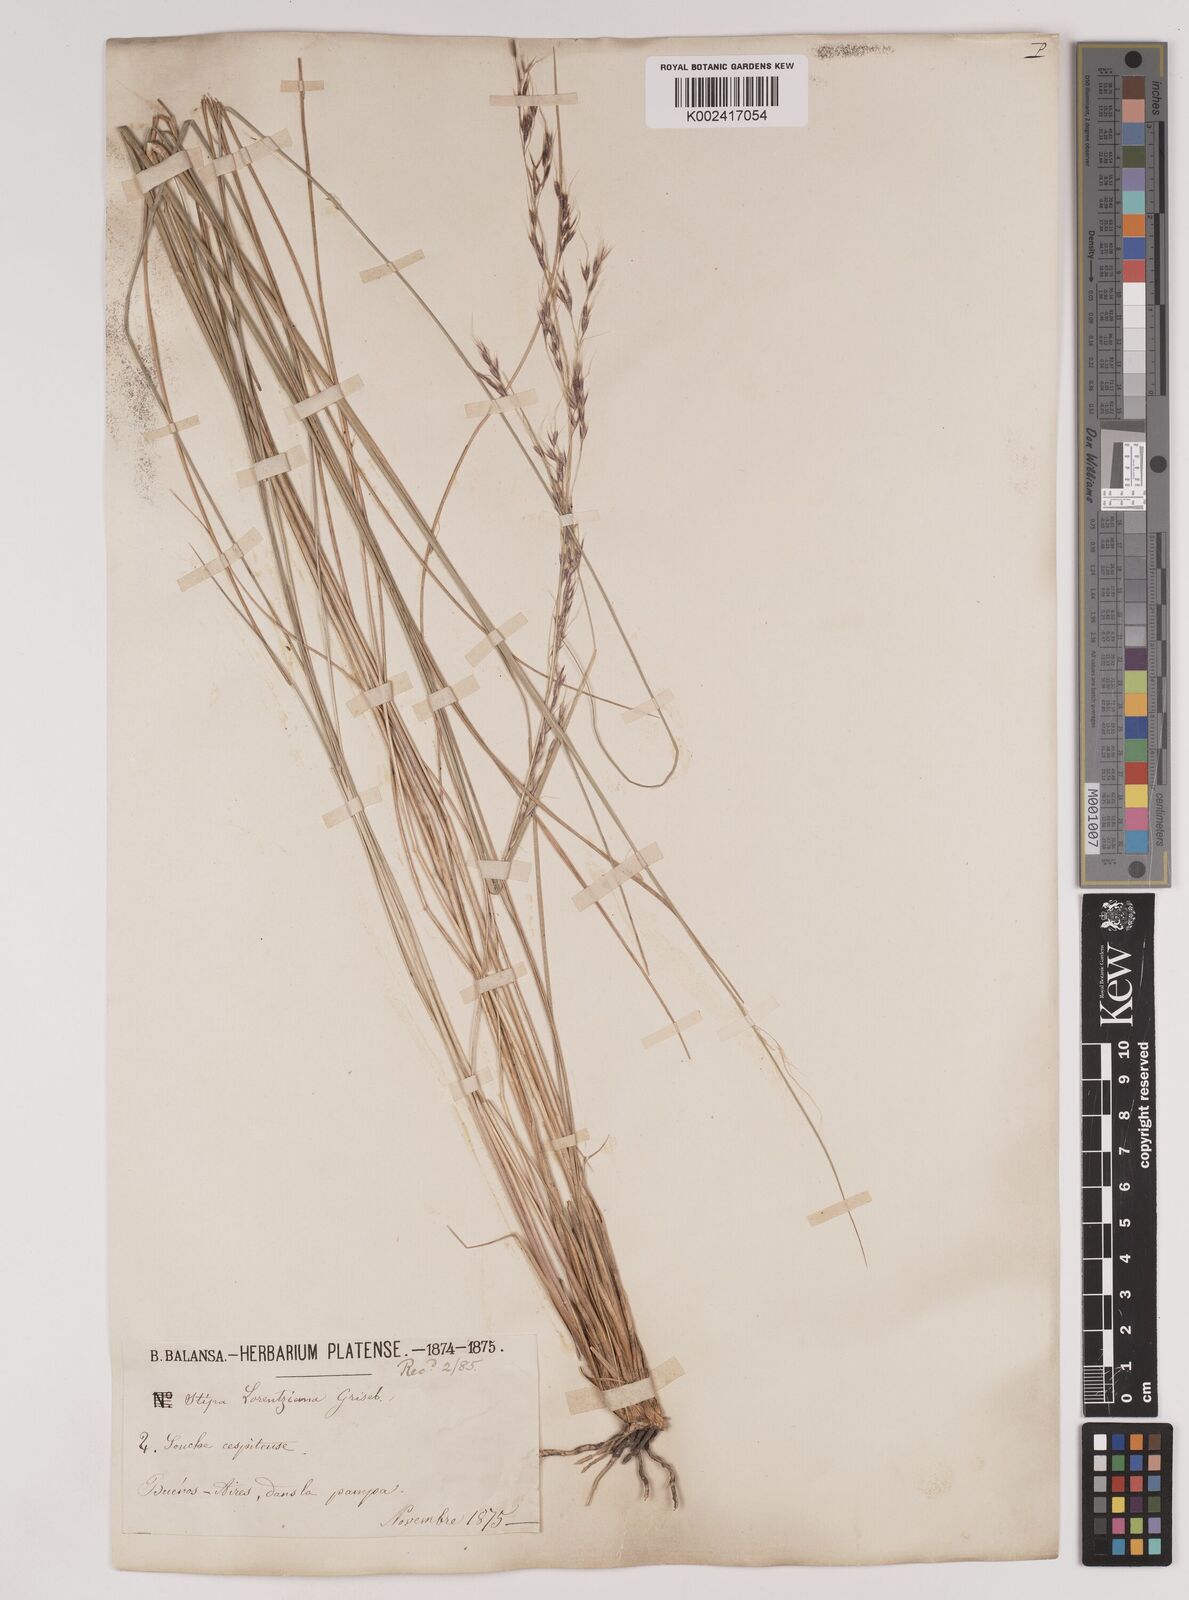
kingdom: Plantae
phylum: Tracheophyta
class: Liliopsida
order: Poales
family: Poaceae
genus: Amelichloa
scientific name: Amelichloa brachychaeta
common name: Shortbristled needlegrass
